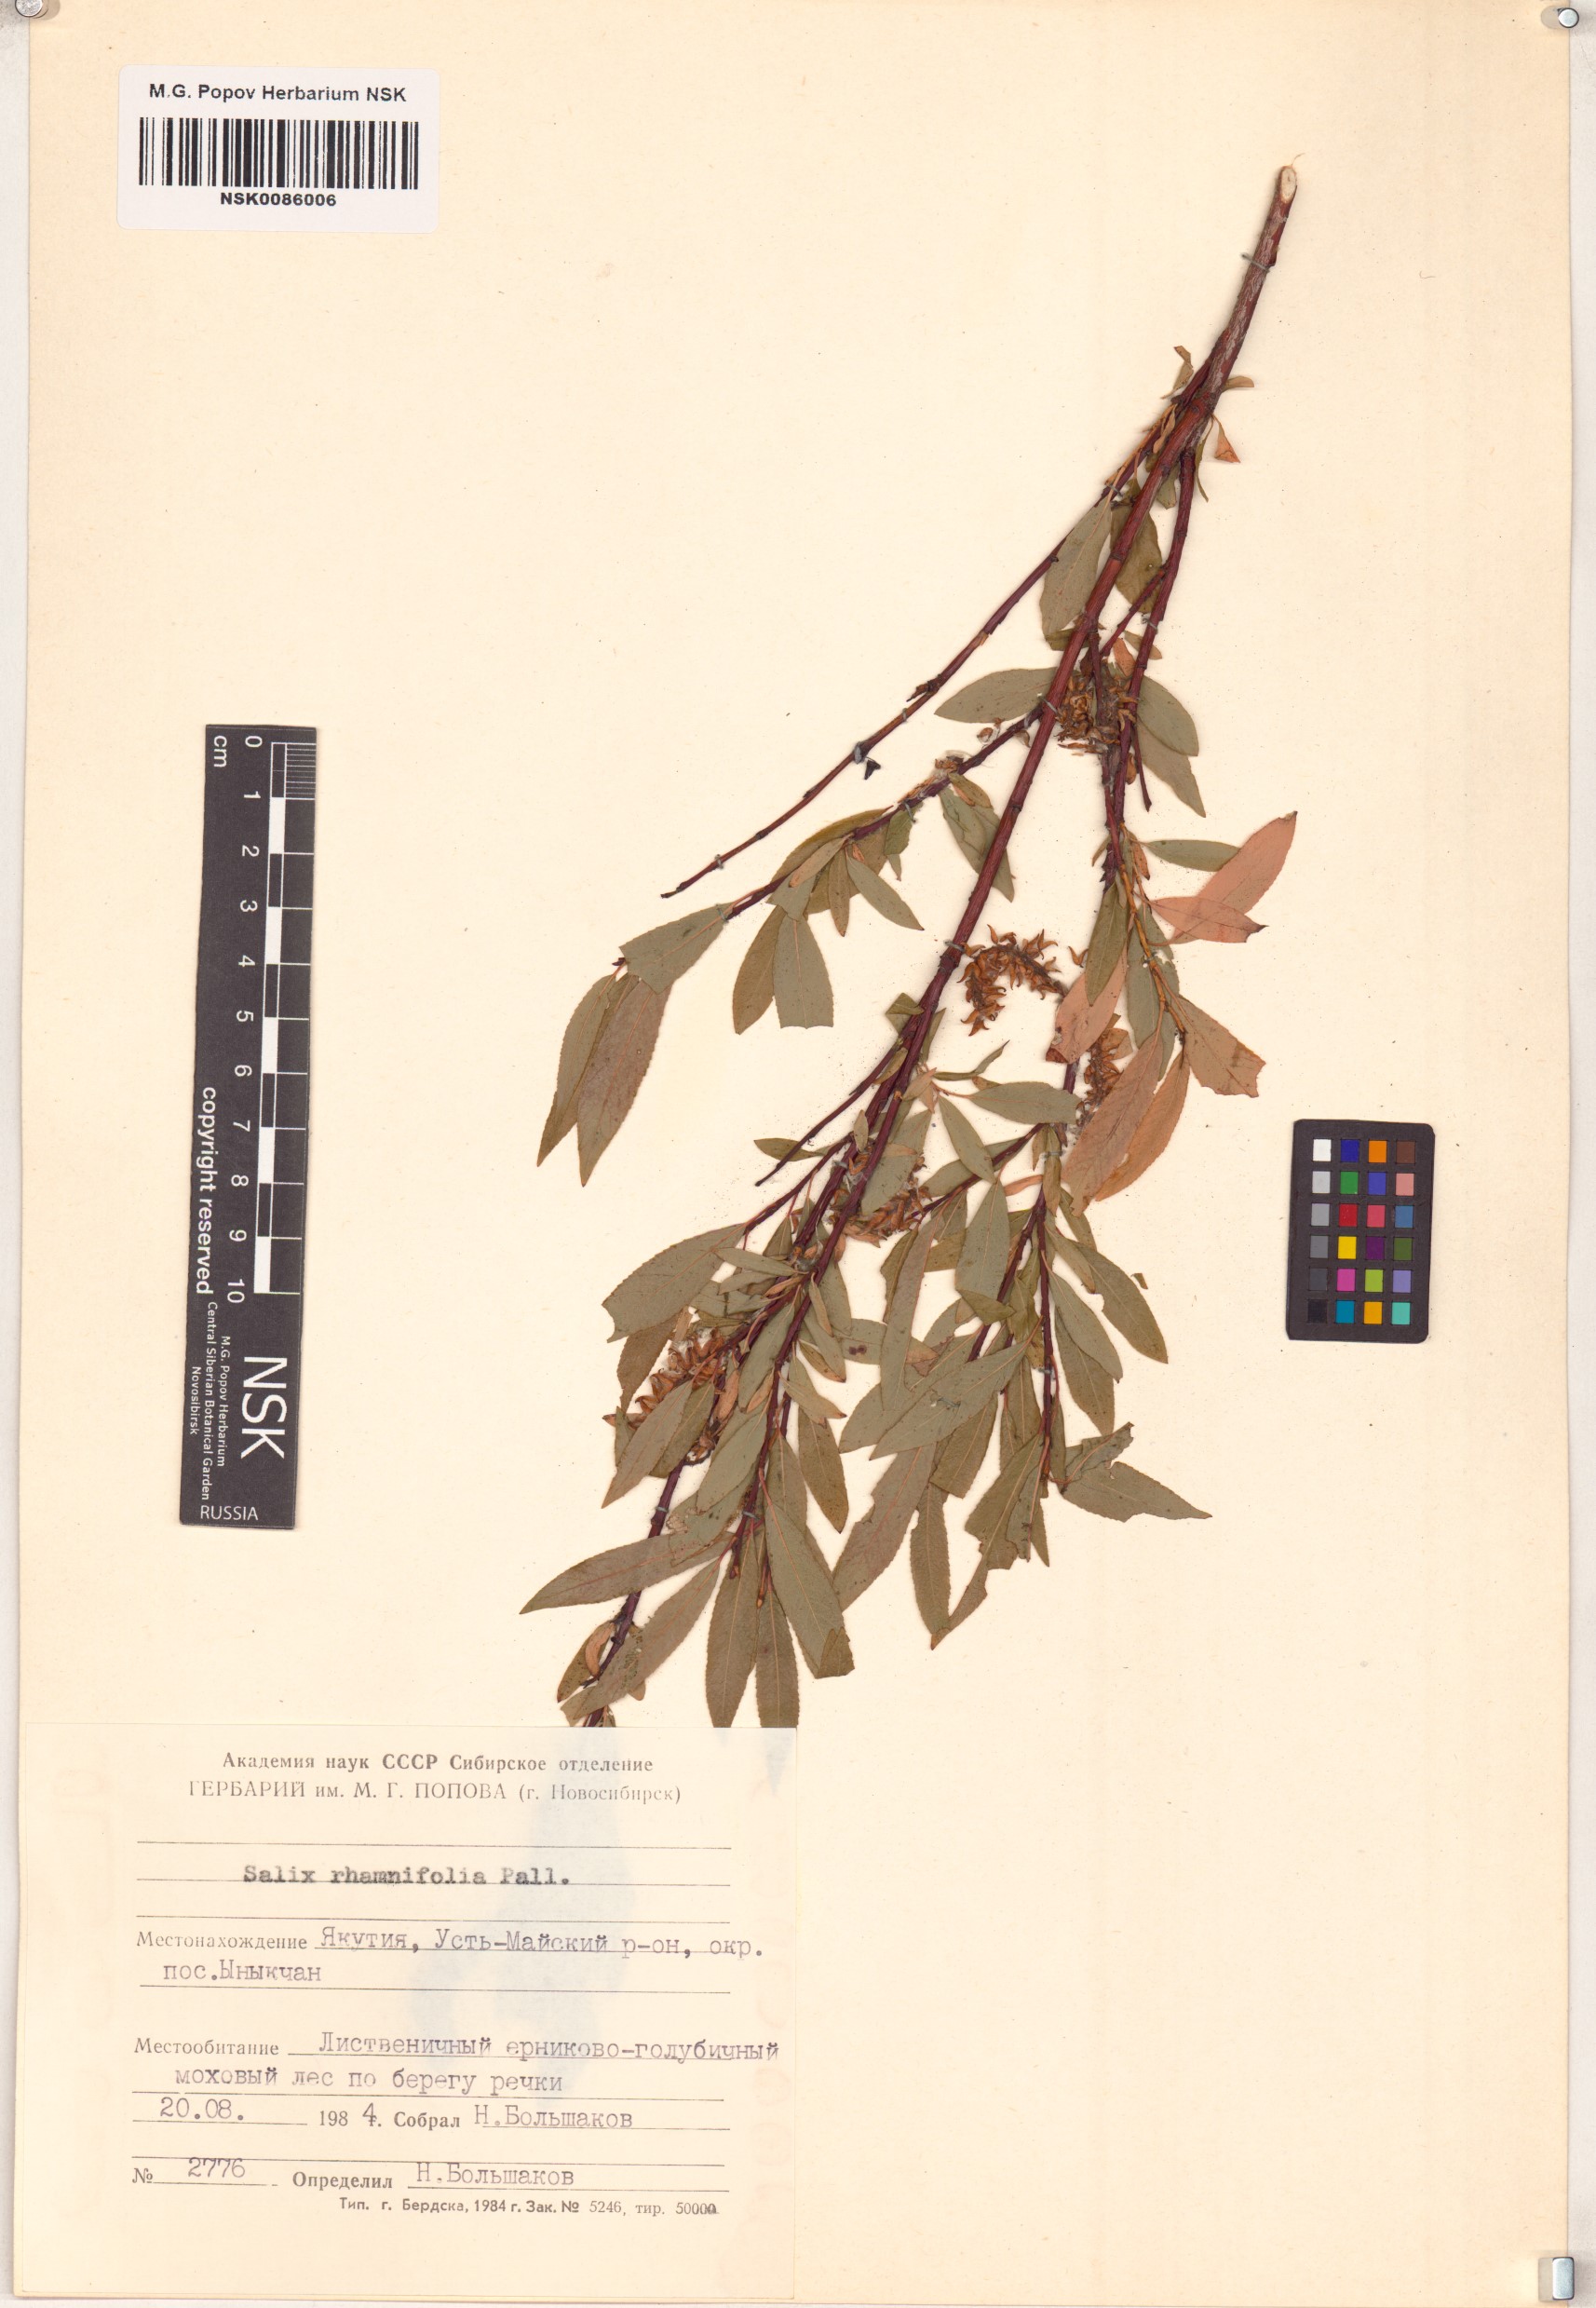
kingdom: Plantae
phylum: Tracheophyta
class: Magnoliopsida
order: Malpighiales
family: Salicaceae
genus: Salix
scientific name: Salix rhamnifolia
